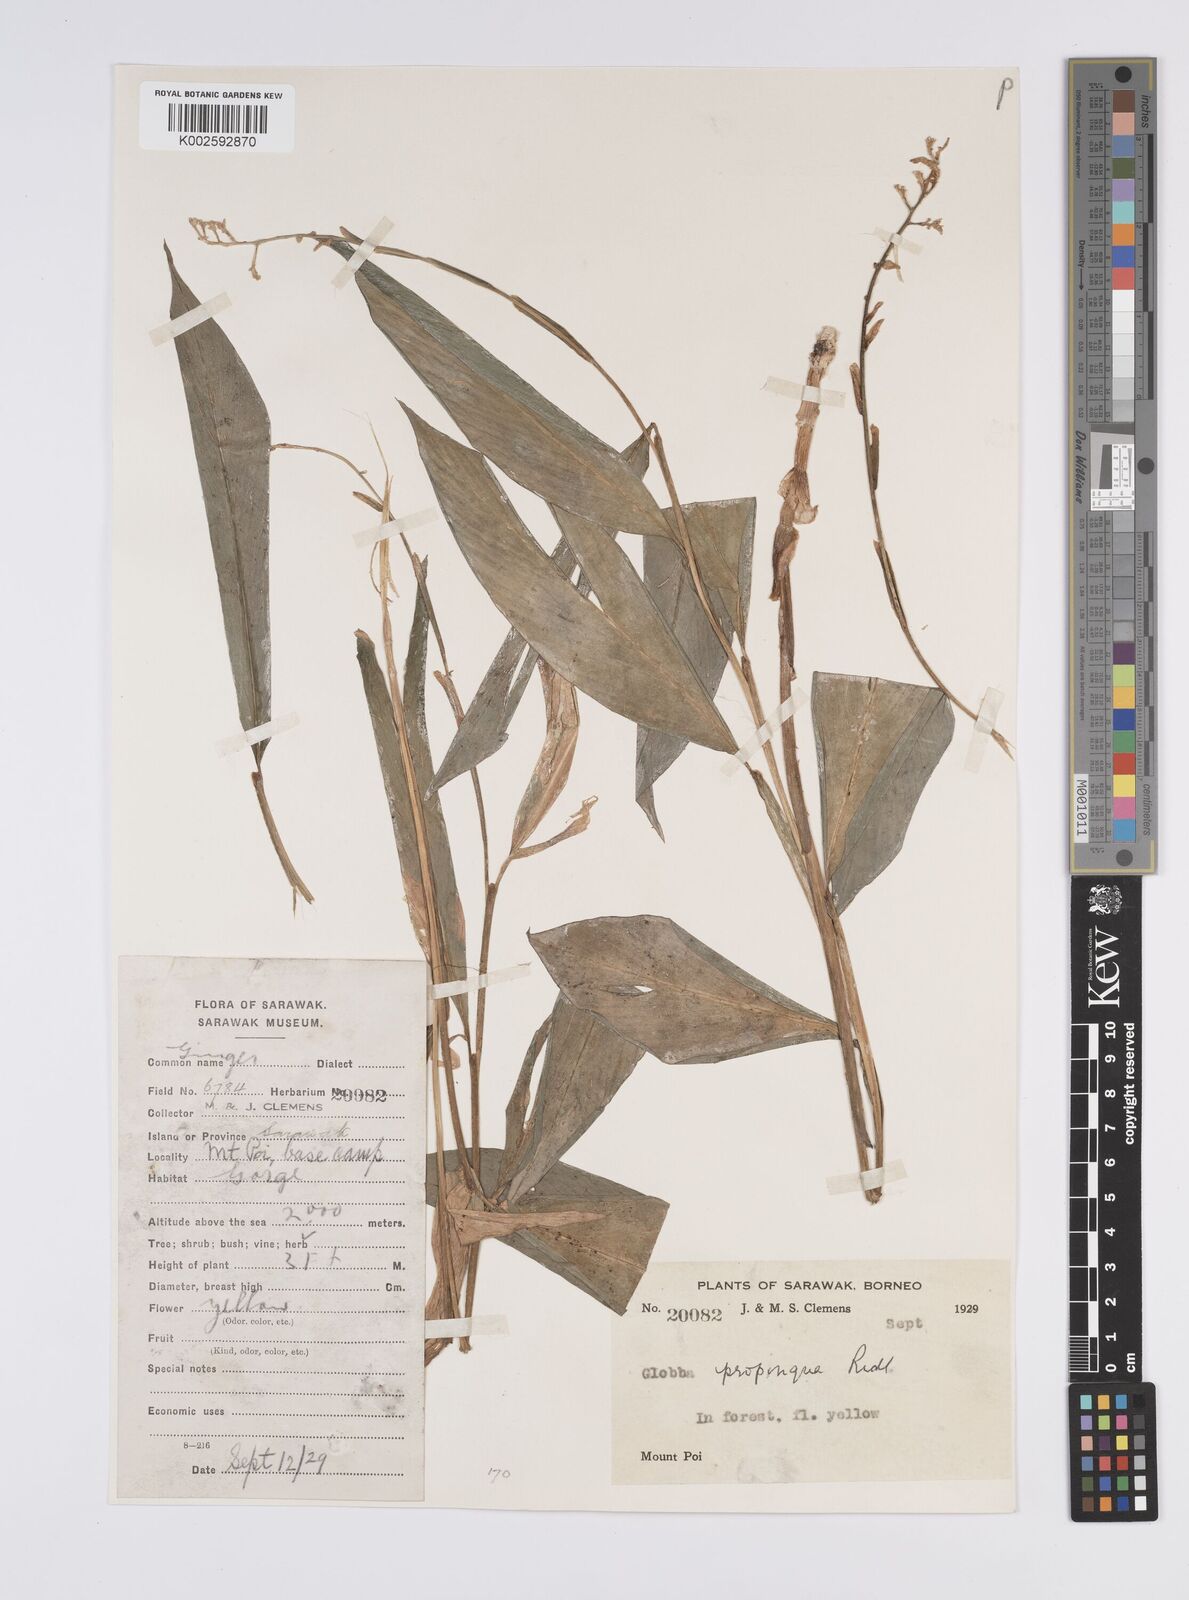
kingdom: Plantae
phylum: Tracheophyta
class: Liliopsida
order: Zingiberales
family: Zingiberaceae
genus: Globba
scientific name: Globba propinqua
